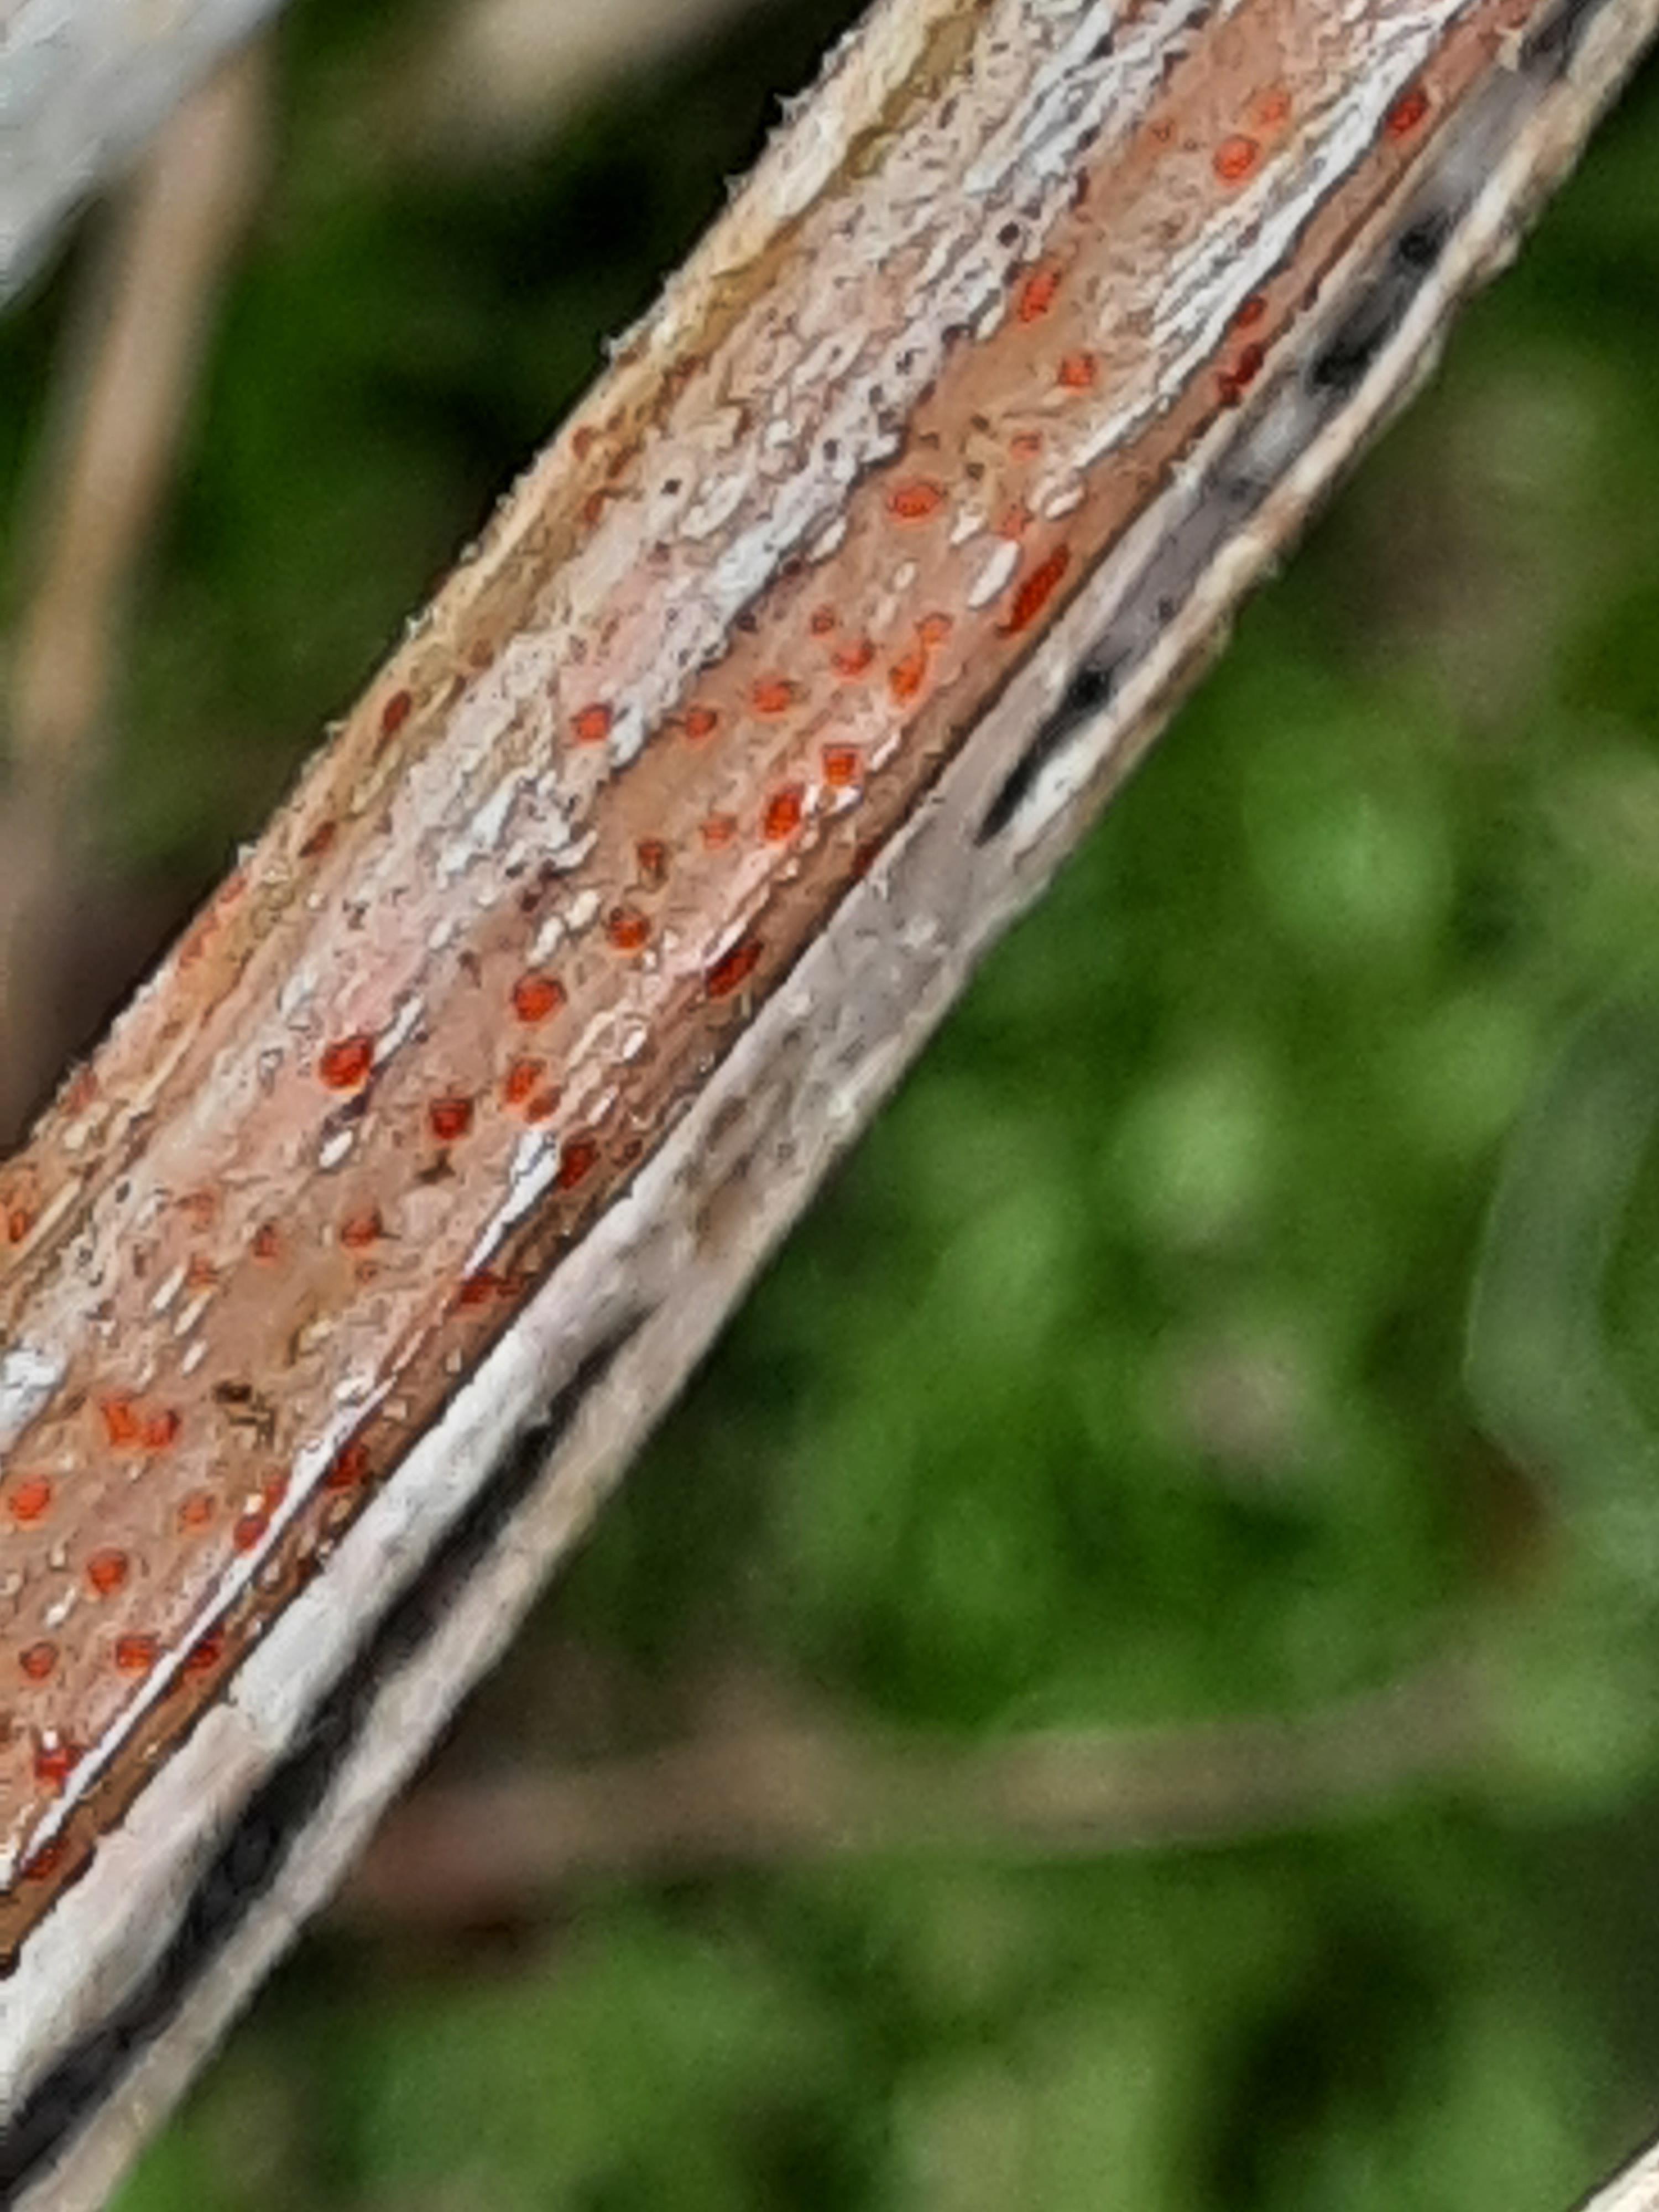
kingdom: Fungi
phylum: Ascomycota
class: Leotiomycetes
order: Helotiales
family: Calloriaceae
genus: Calloria
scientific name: Calloria urticae
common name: nælde-orangeskive
